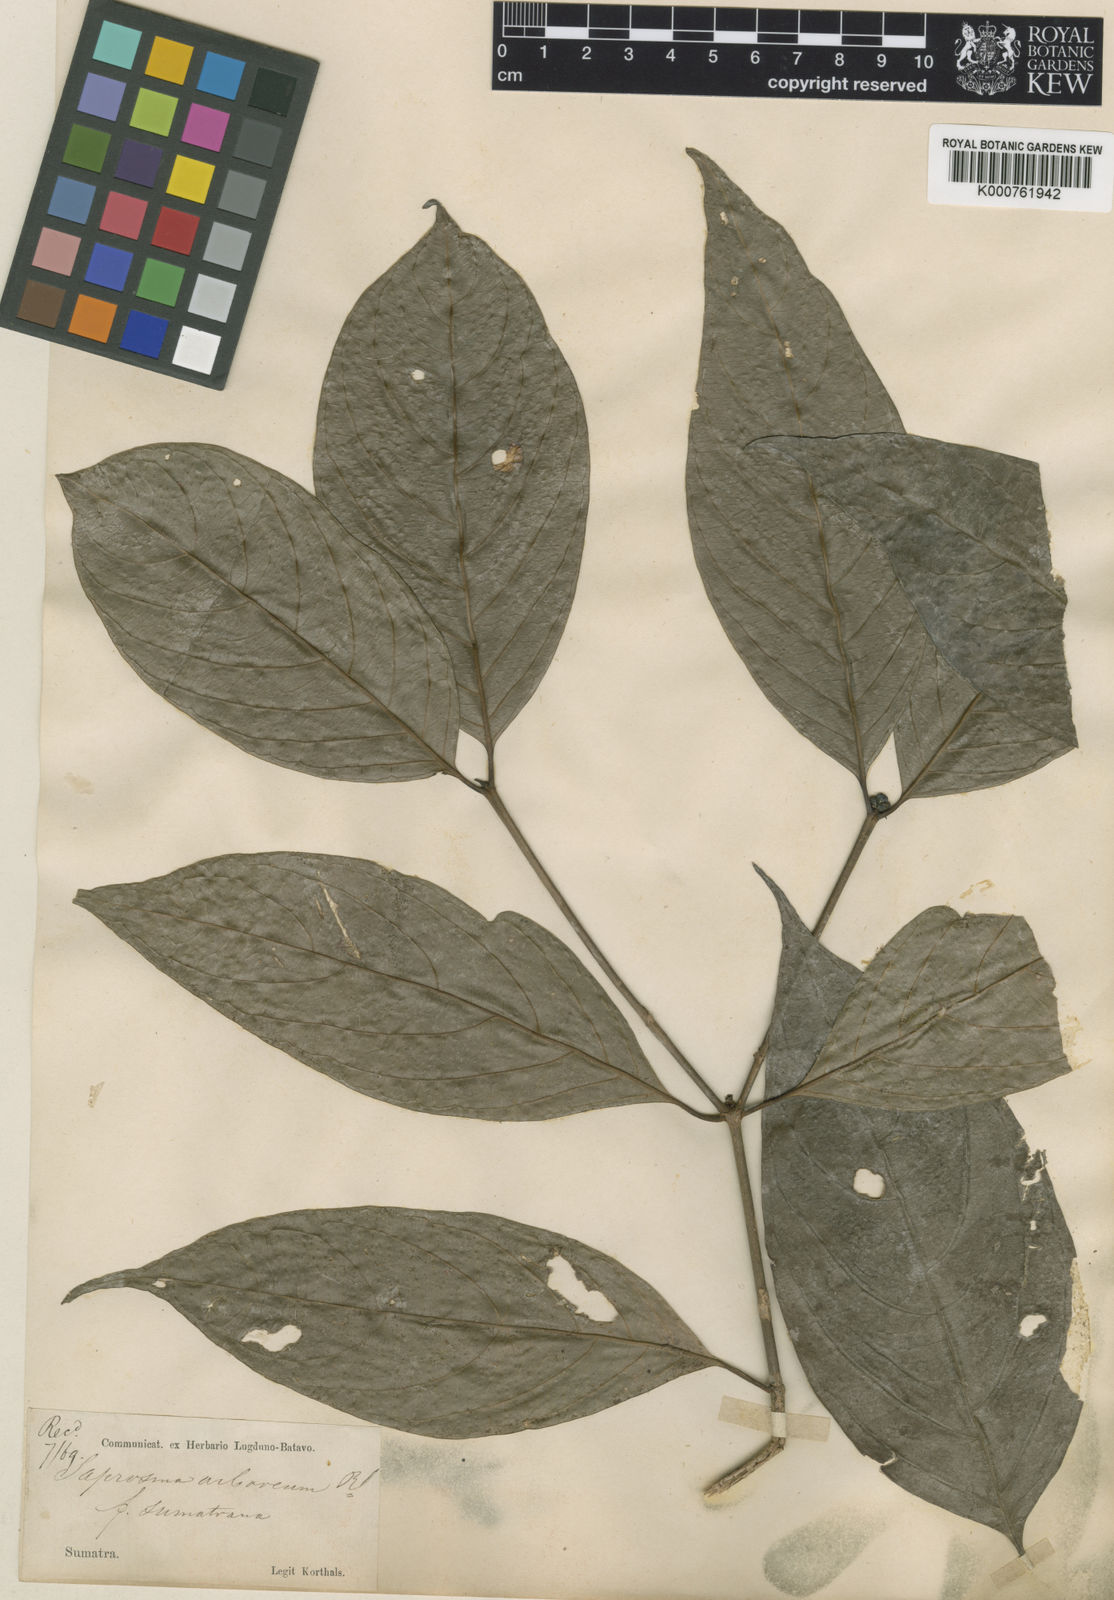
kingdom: Plantae
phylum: Tracheophyta
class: Magnoliopsida
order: Gentianales
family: Rubiaceae
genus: Saprosma
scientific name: Saprosma arborea
